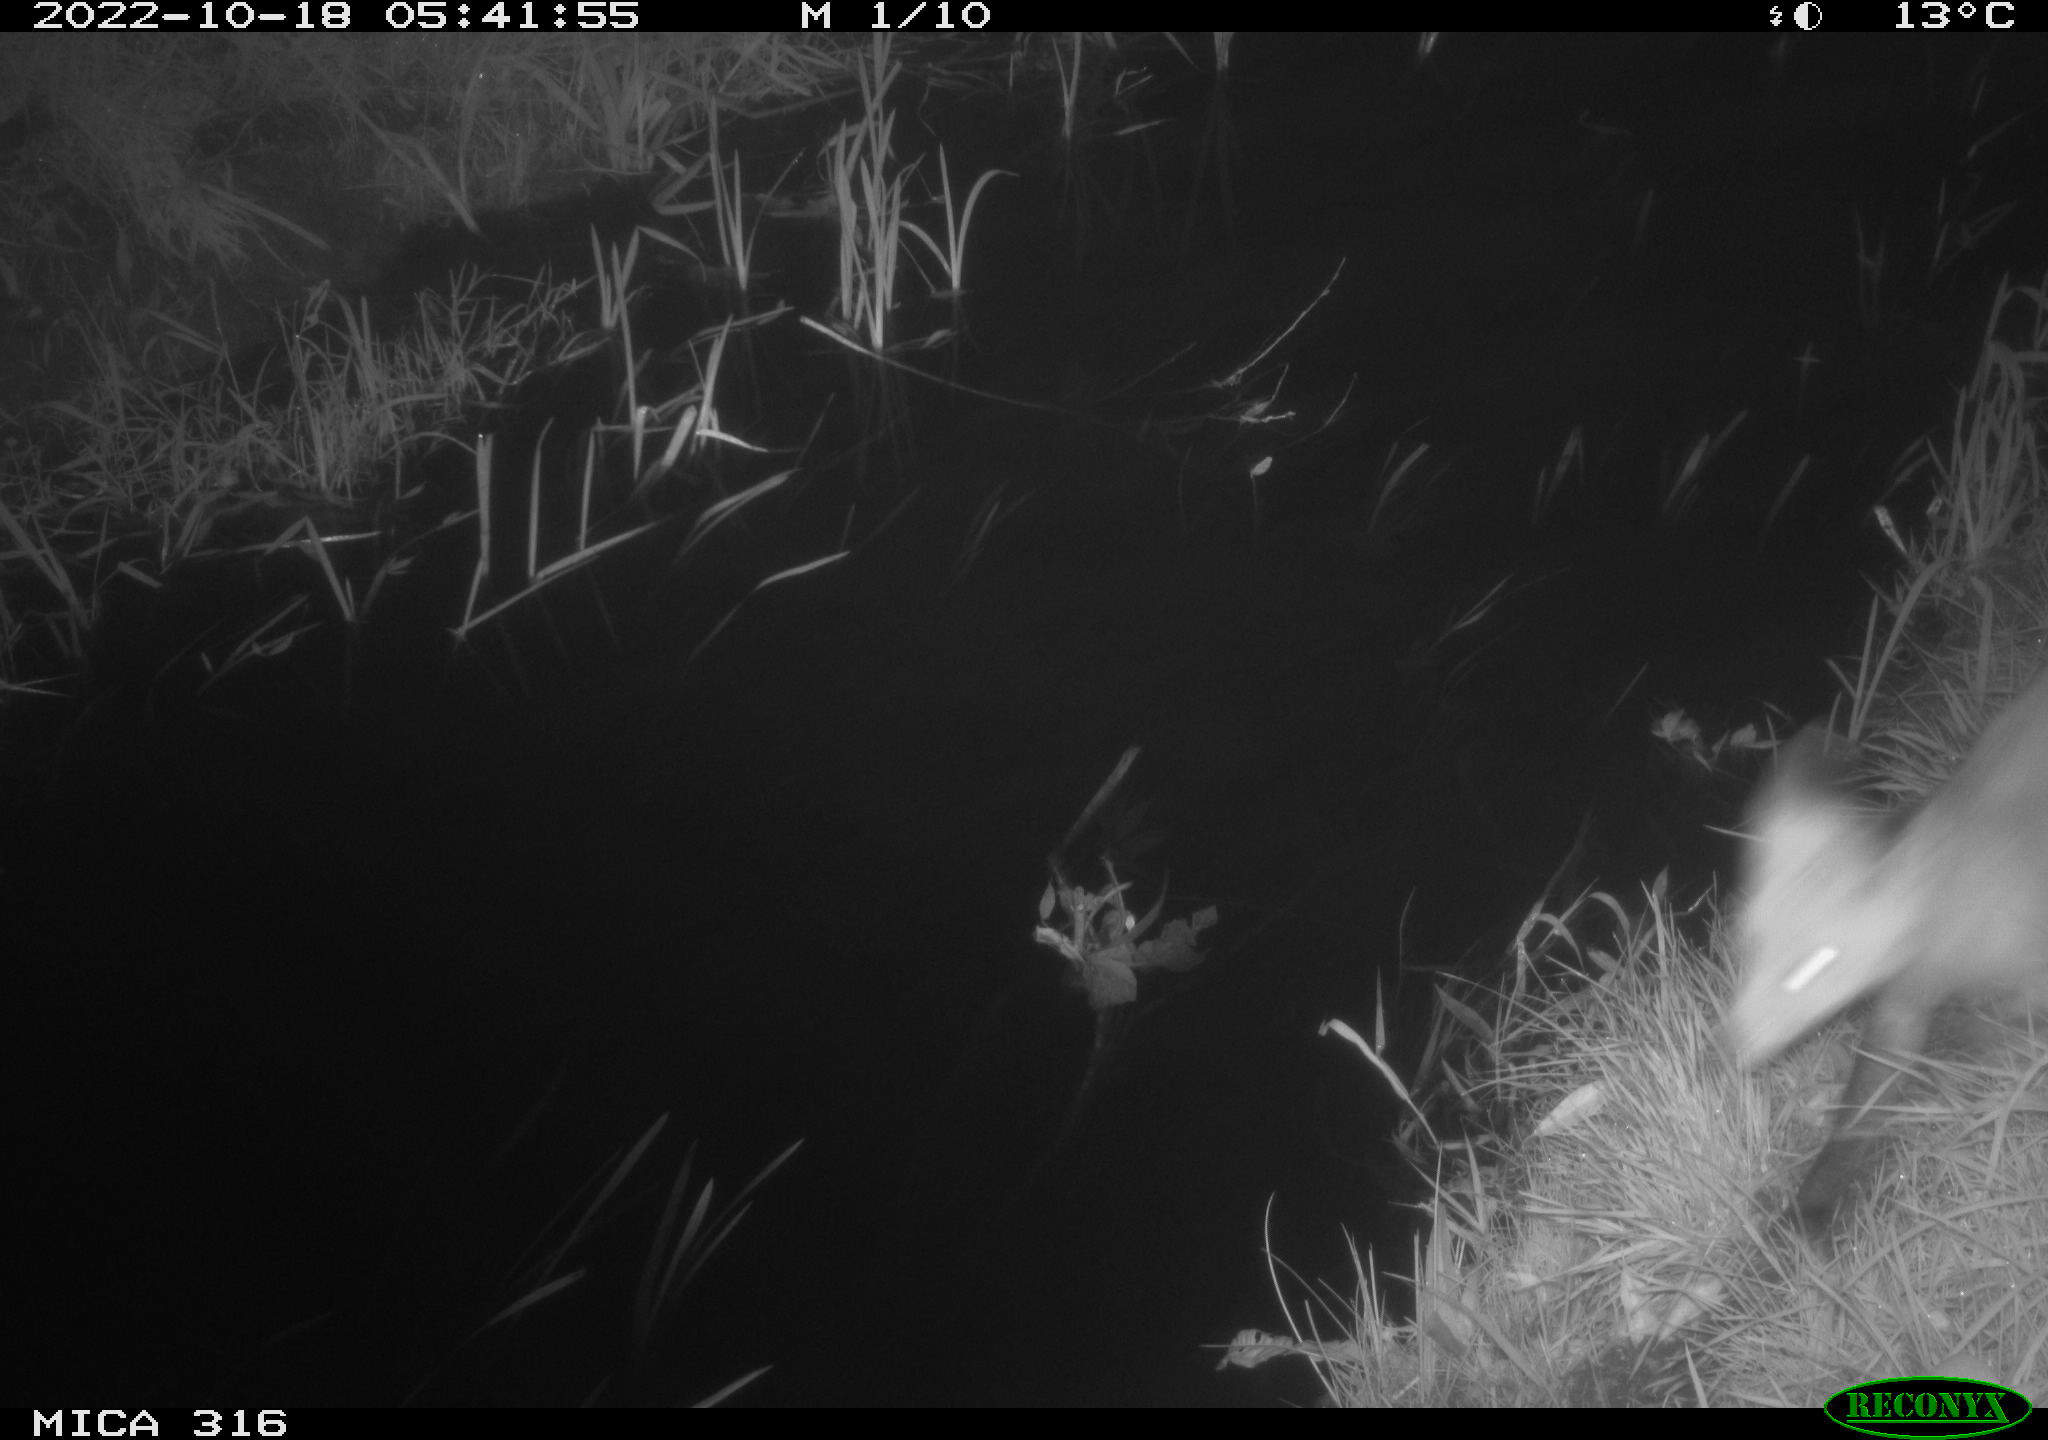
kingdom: Animalia
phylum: Chordata
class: Mammalia
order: Carnivora
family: Canidae
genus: Vulpes
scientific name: Vulpes vulpes
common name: Red fox
